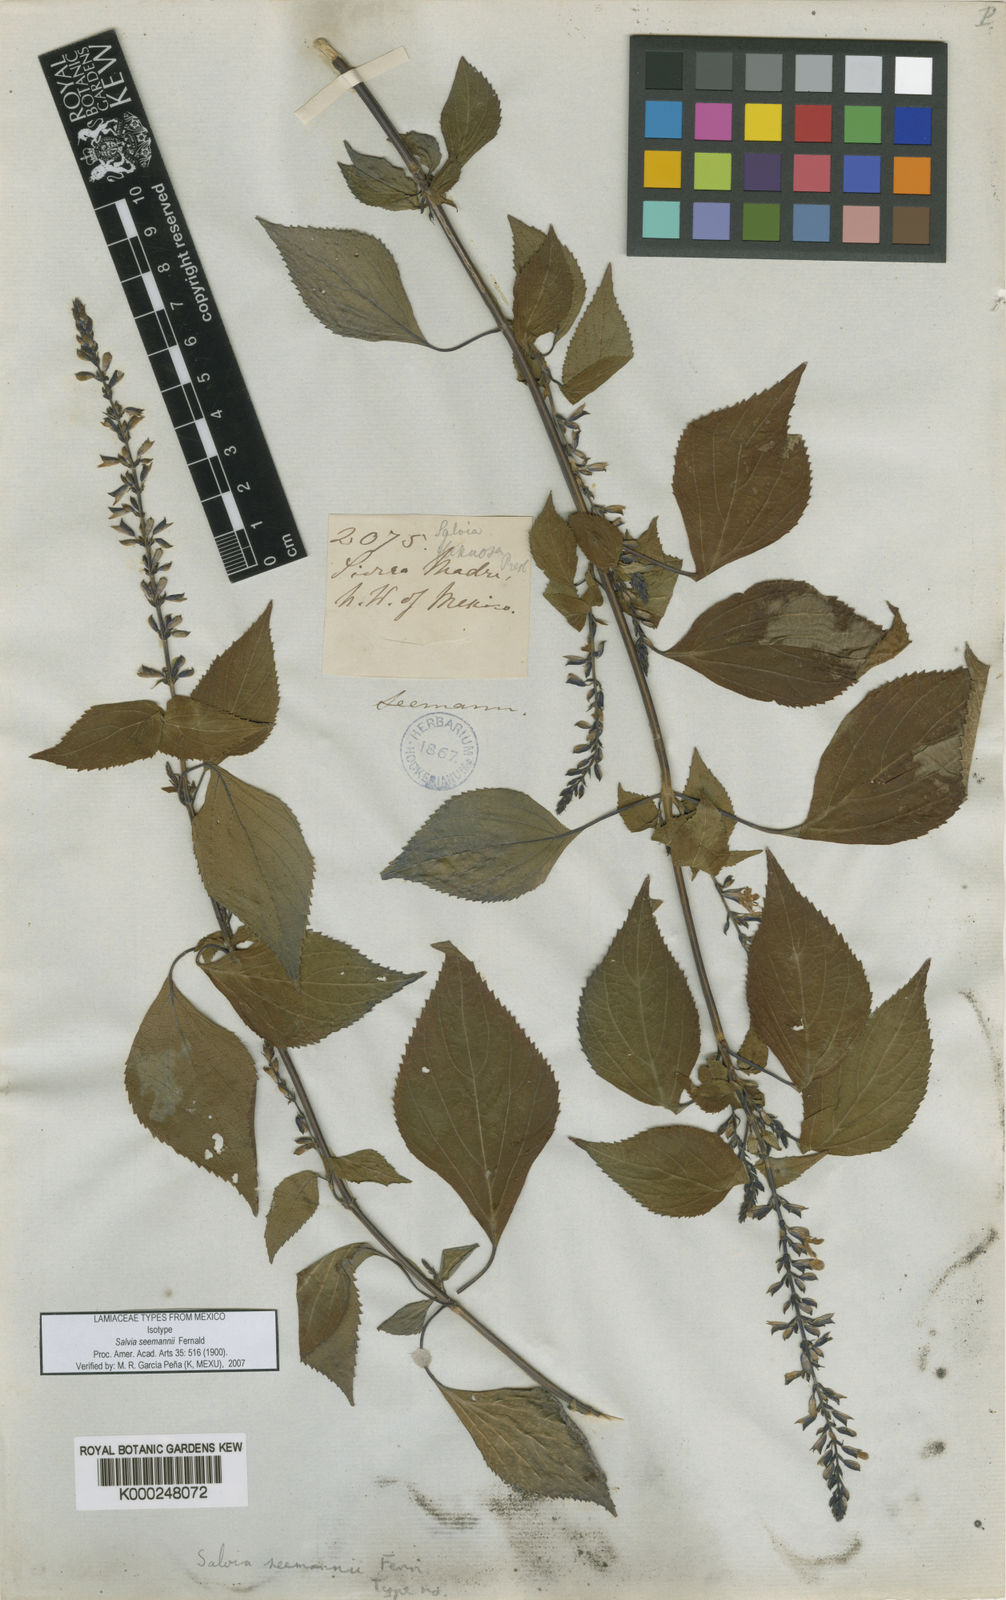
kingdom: Plantae
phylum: Tracheophyta
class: Magnoliopsida
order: Lamiales
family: Lamiaceae
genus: Salvia
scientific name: Salvia seemannii
